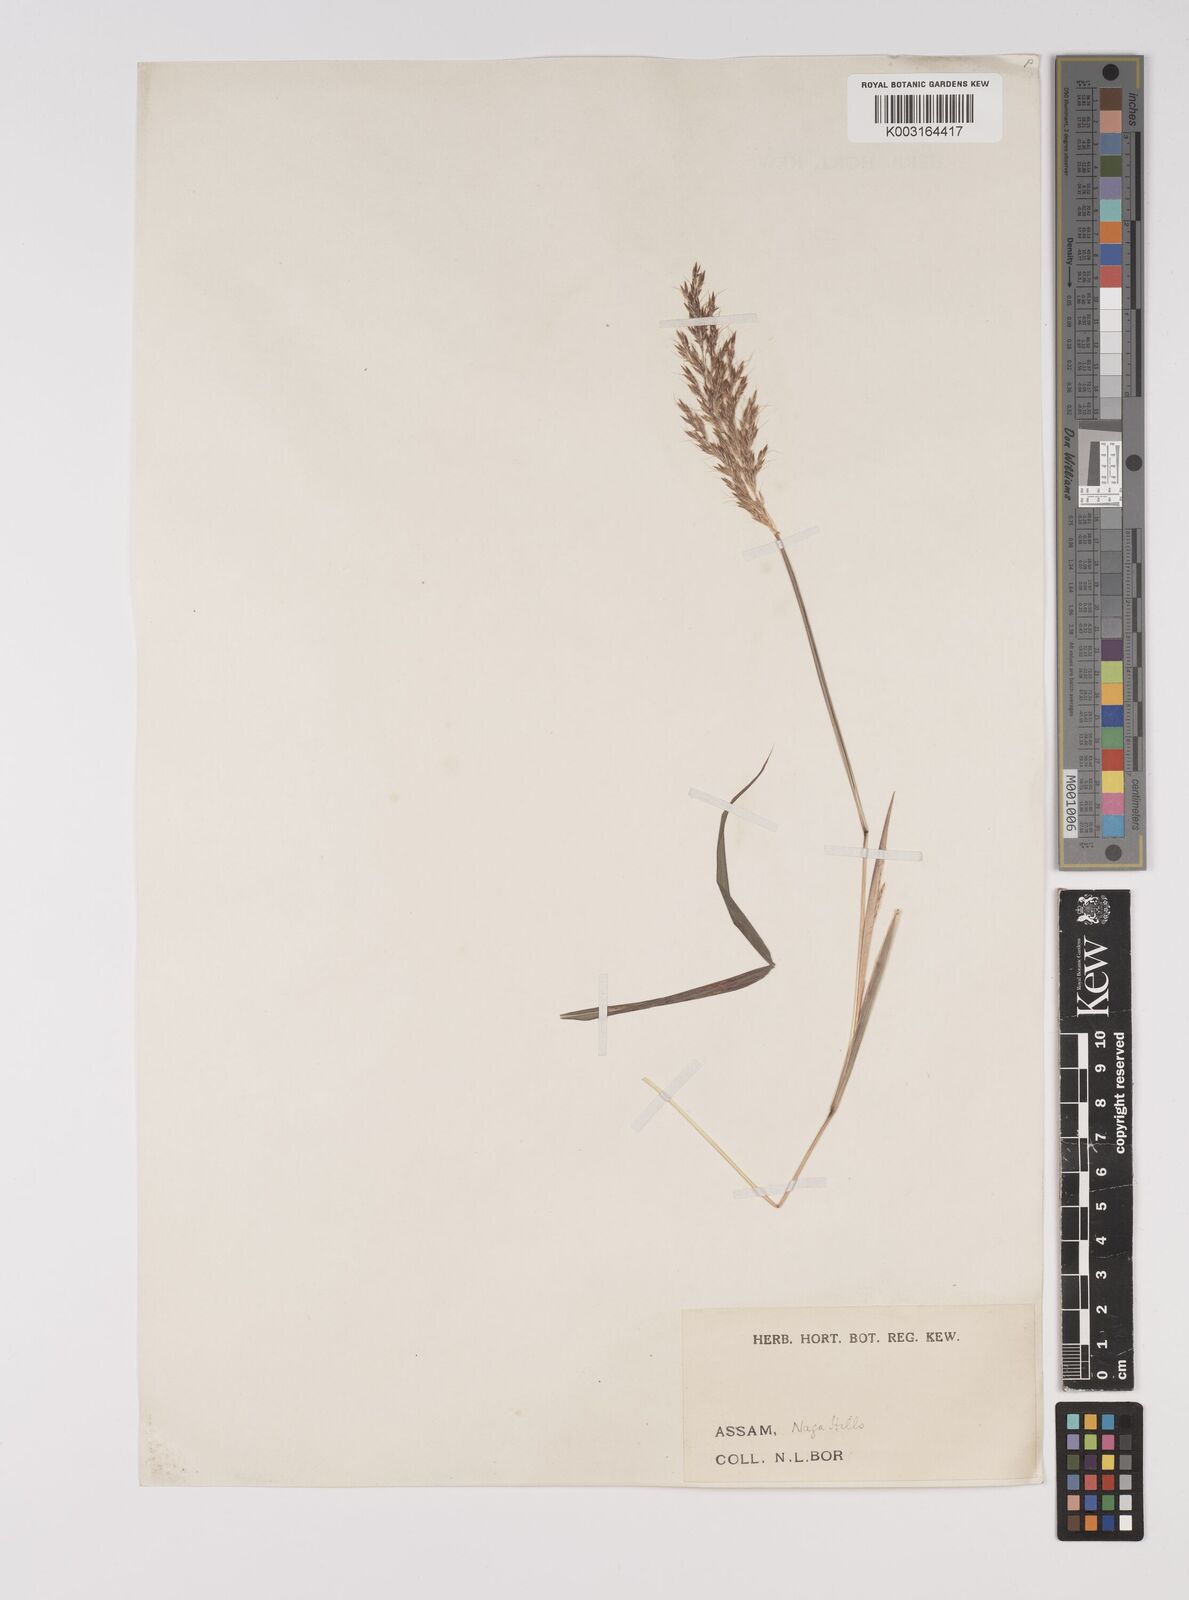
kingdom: Plantae
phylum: Tracheophyta
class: Liliopsida
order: Poales
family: Poaceae
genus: Capillipedium
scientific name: Capillipedium assimile
